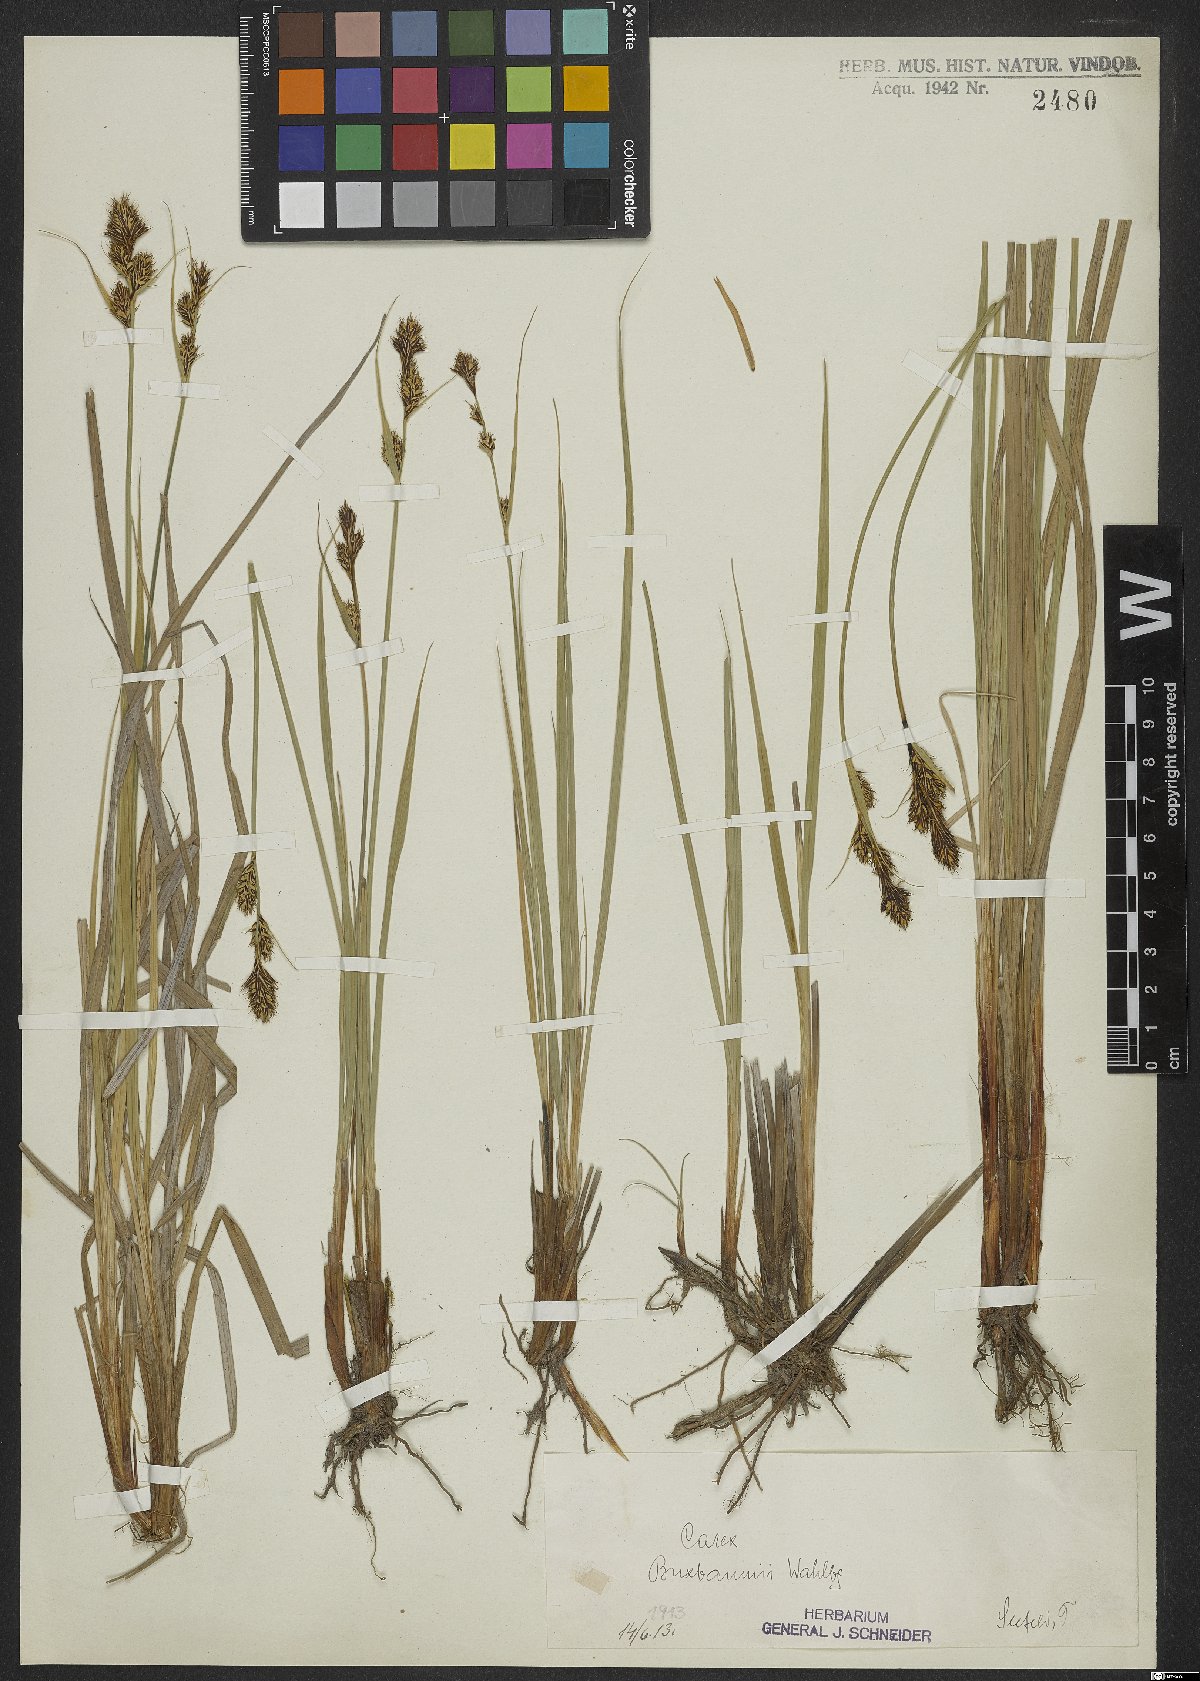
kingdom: Plantae
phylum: Tracheophyta
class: Liliopsida
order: Poales
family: Cyperaceae
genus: Carex
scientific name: Carex buxbaumii
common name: Club sedge
